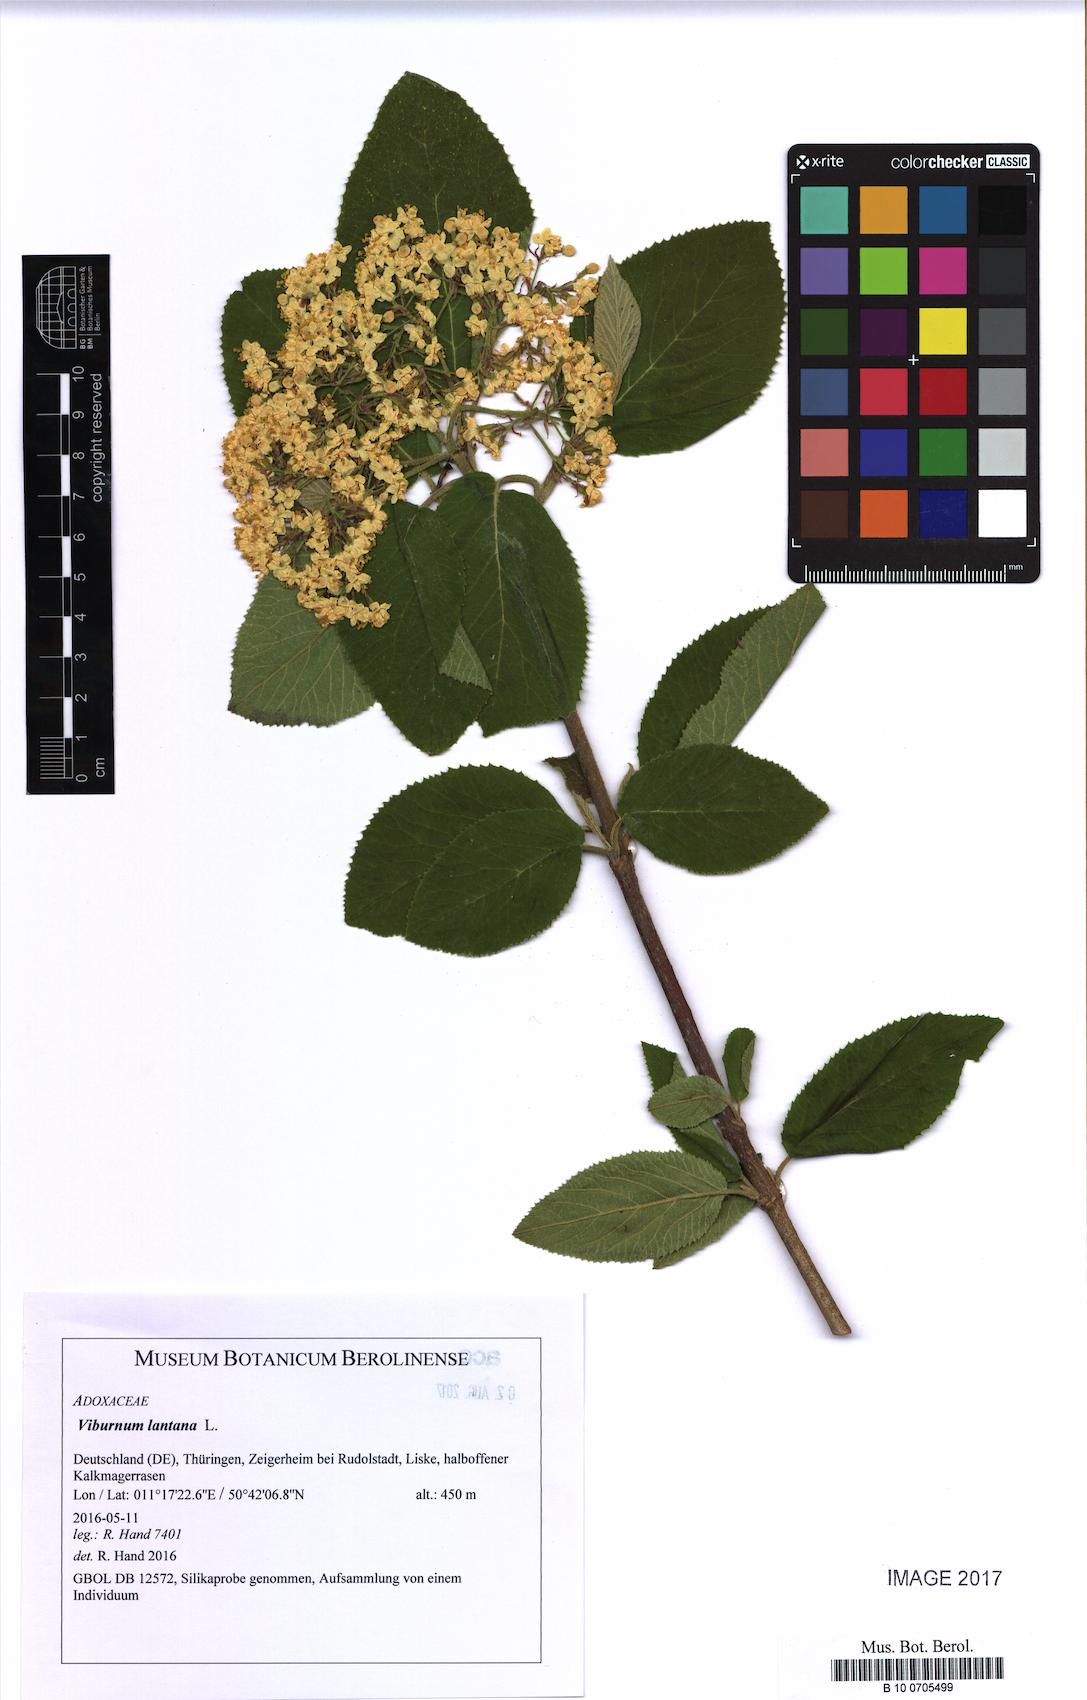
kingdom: Plantae
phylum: Tracheophyta
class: Magnoliopsida
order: Dipsacales
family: Viburnaceae
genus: Viburnum
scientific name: Viburnum lantana
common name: Wayfaring tree
